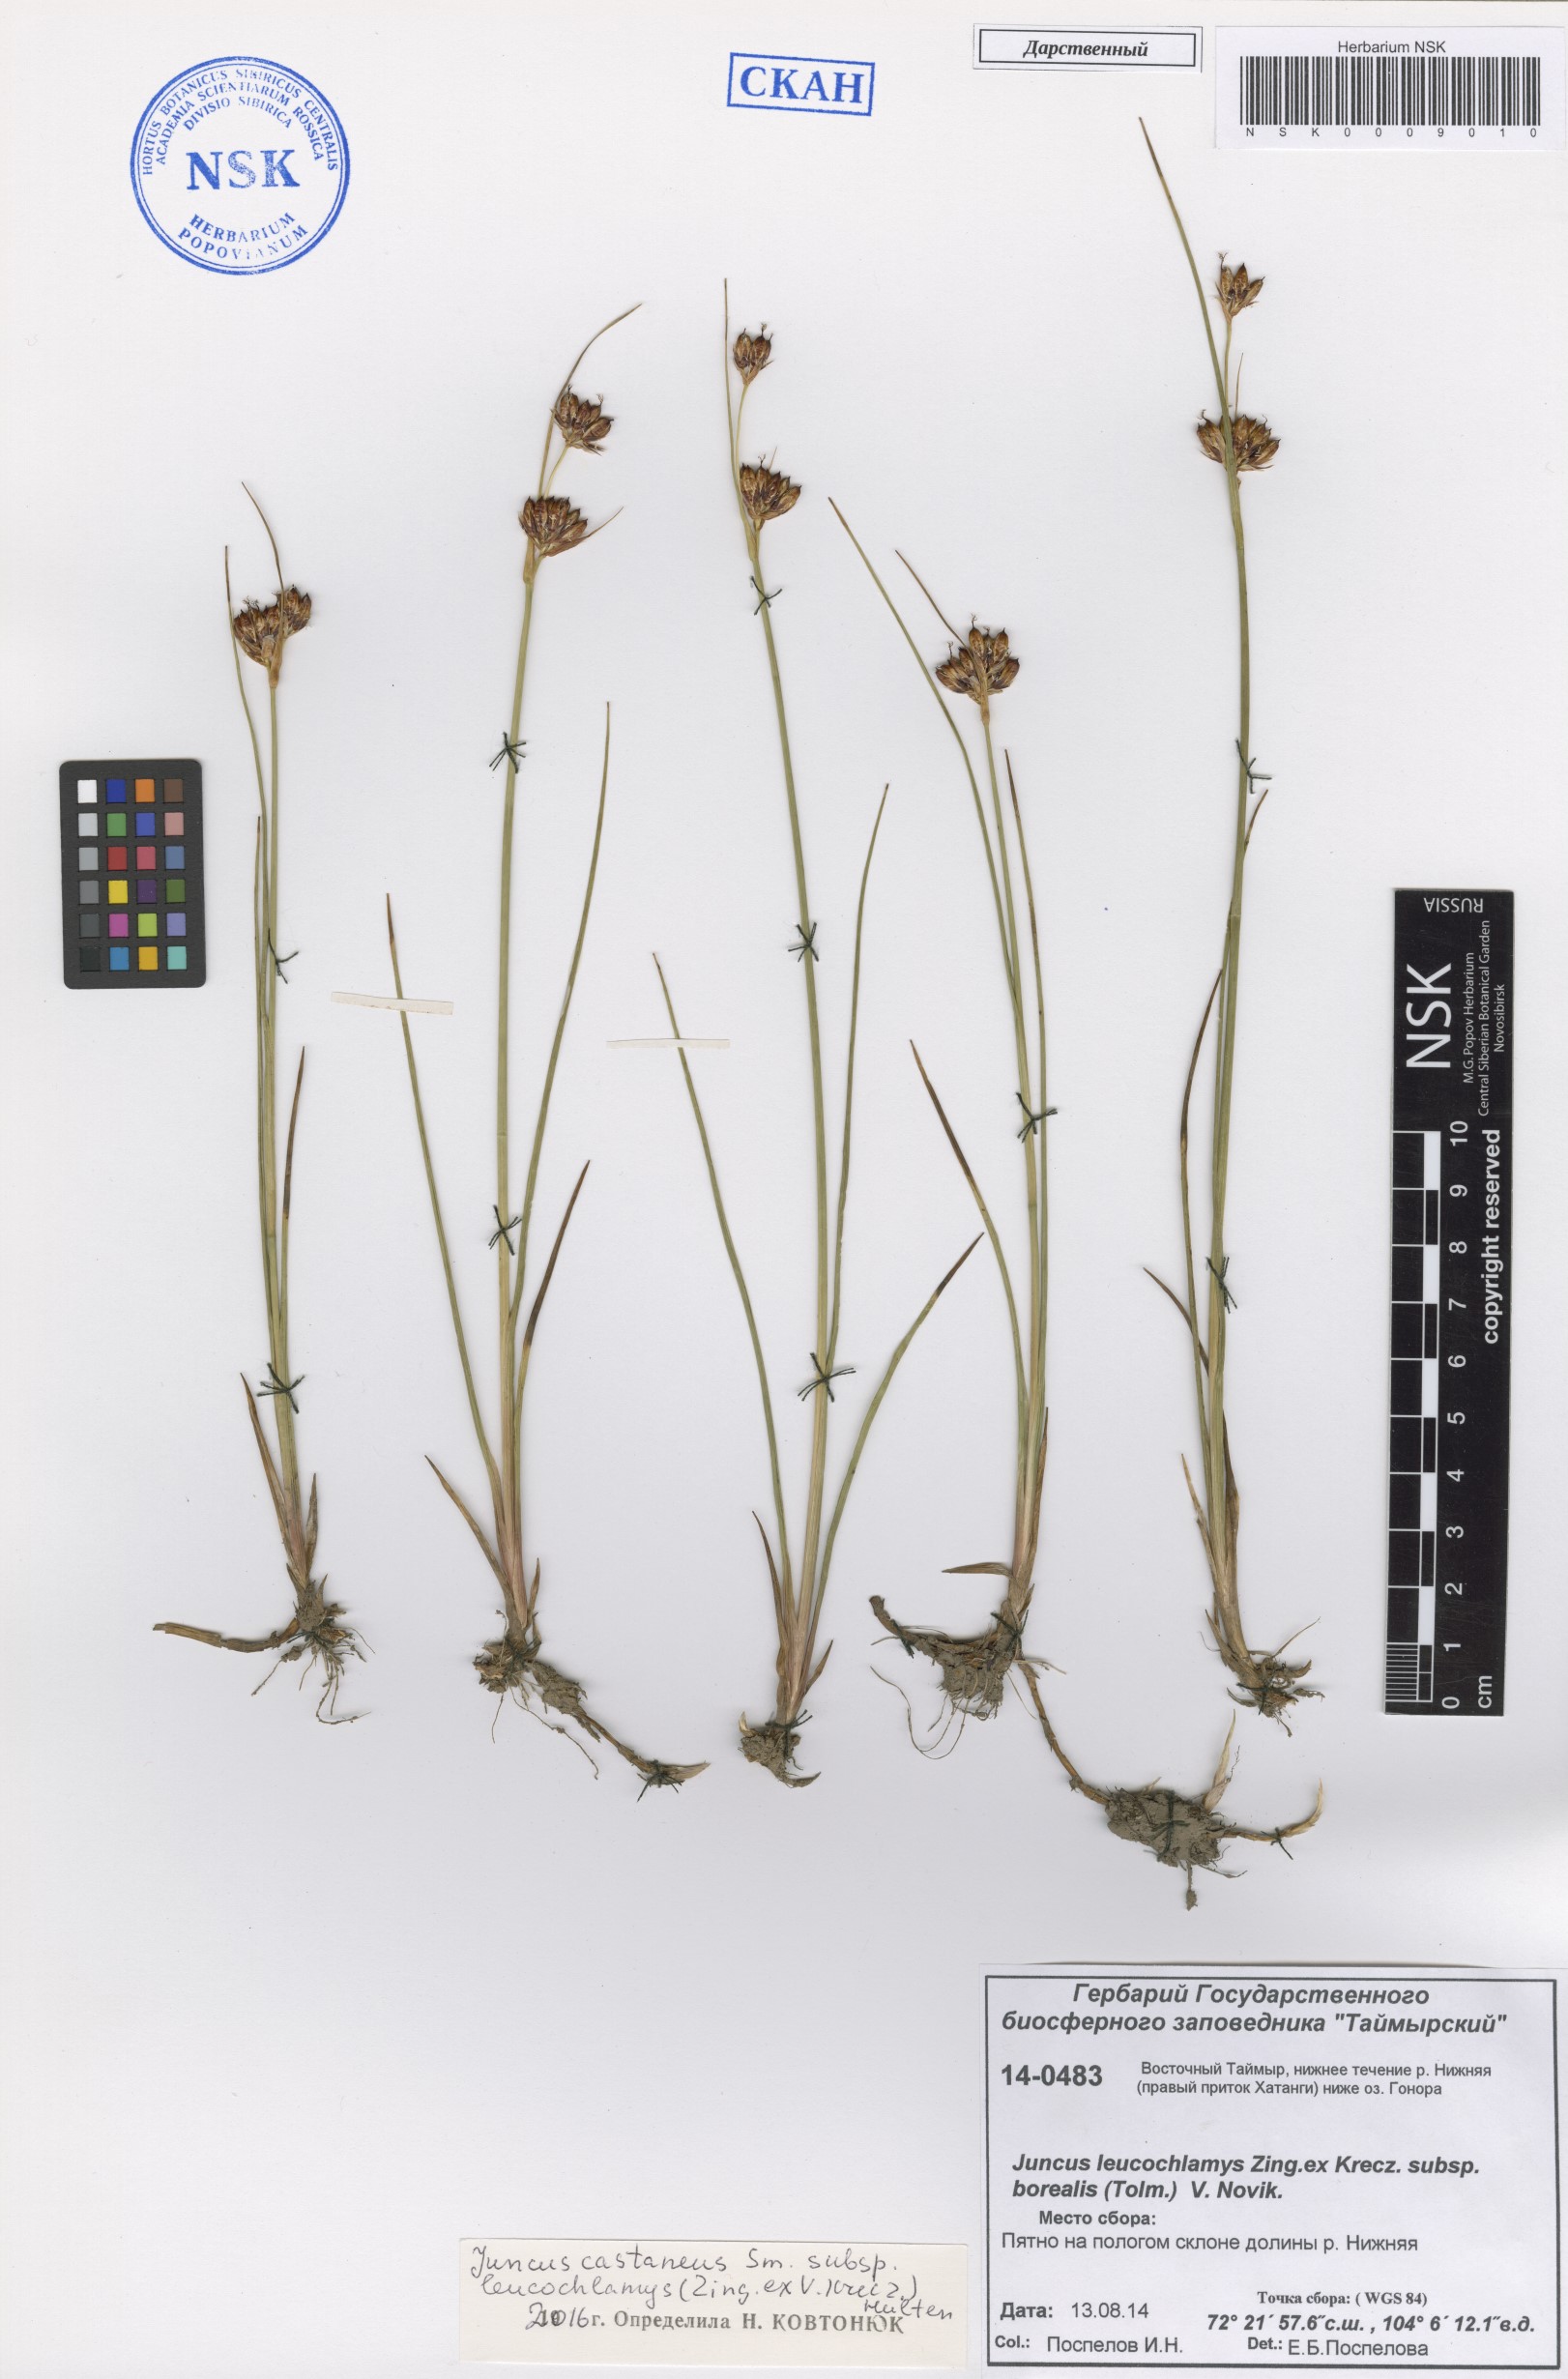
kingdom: Plantae
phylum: Tracheophyta
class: Liliopsida
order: Poales
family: Juncaceae
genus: Juncus
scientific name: Juncus castaneus
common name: Chestnut rush
